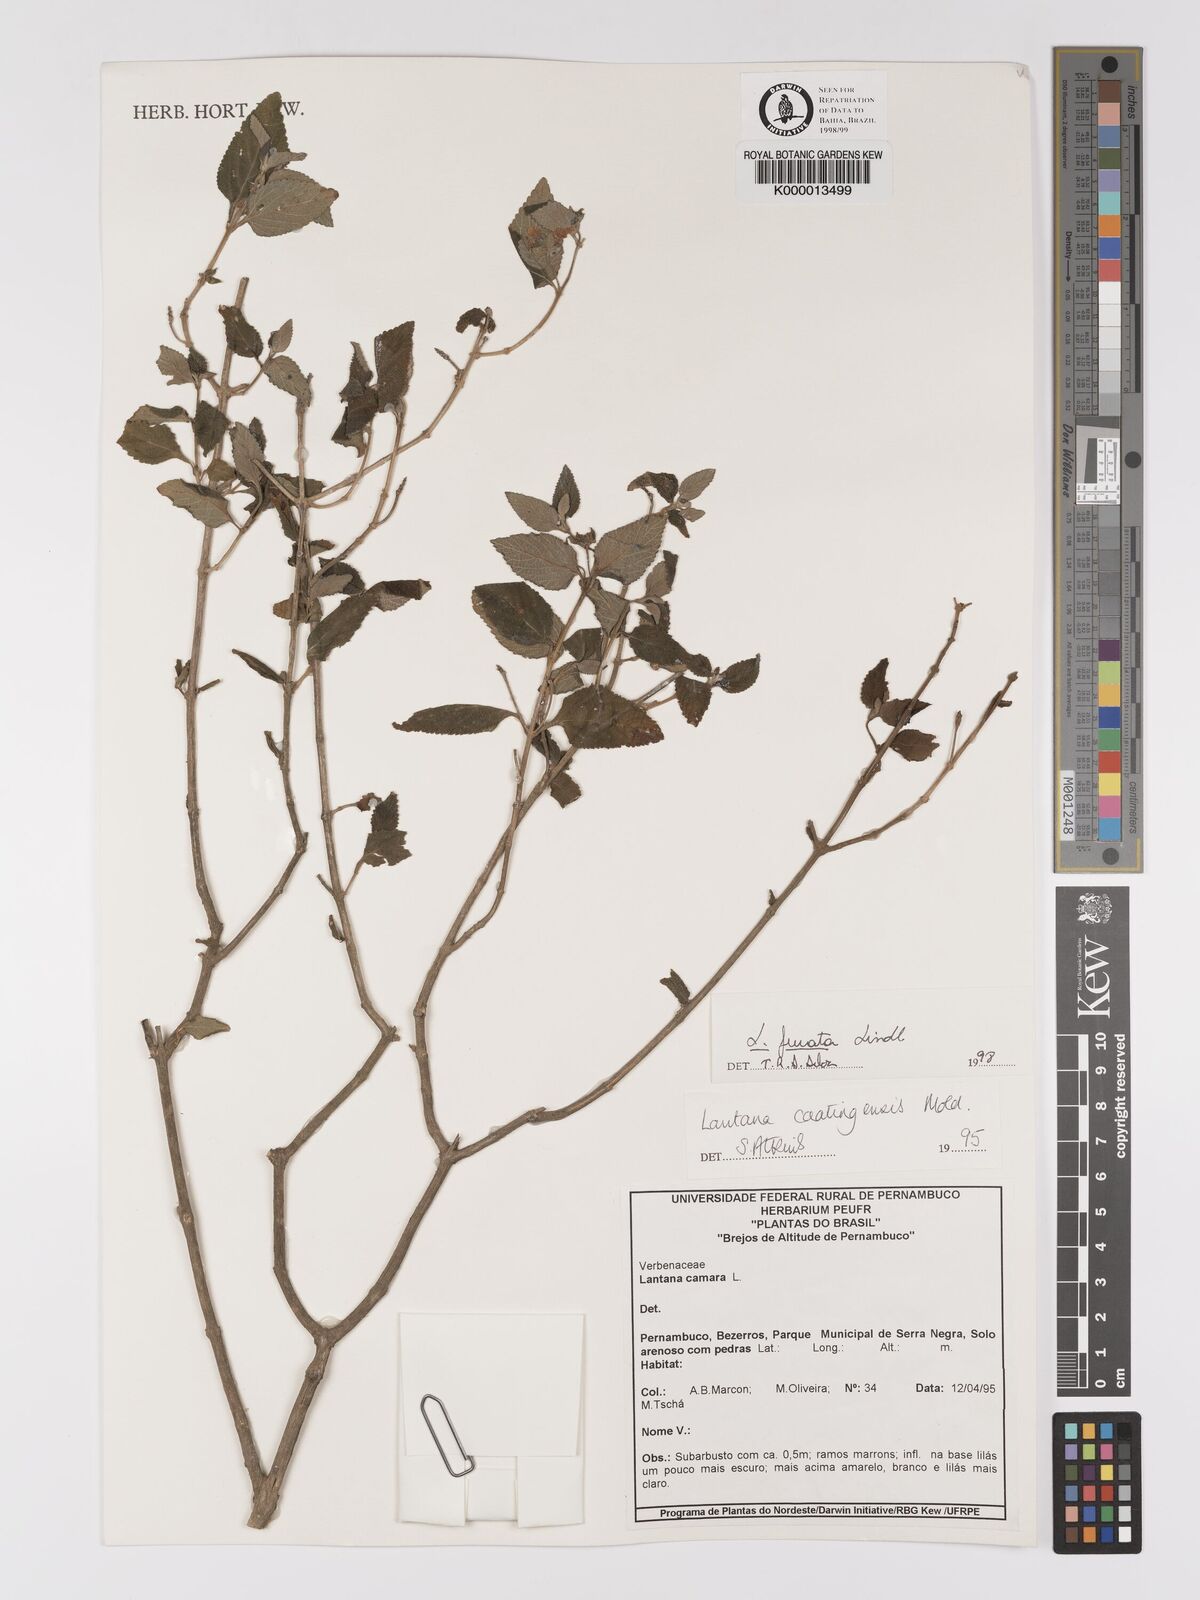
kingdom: Plantae
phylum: Tracheophyta
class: Magnoliopsida
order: Lamiales
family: Verbenaceae
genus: Lantana
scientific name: Lantana fucata
